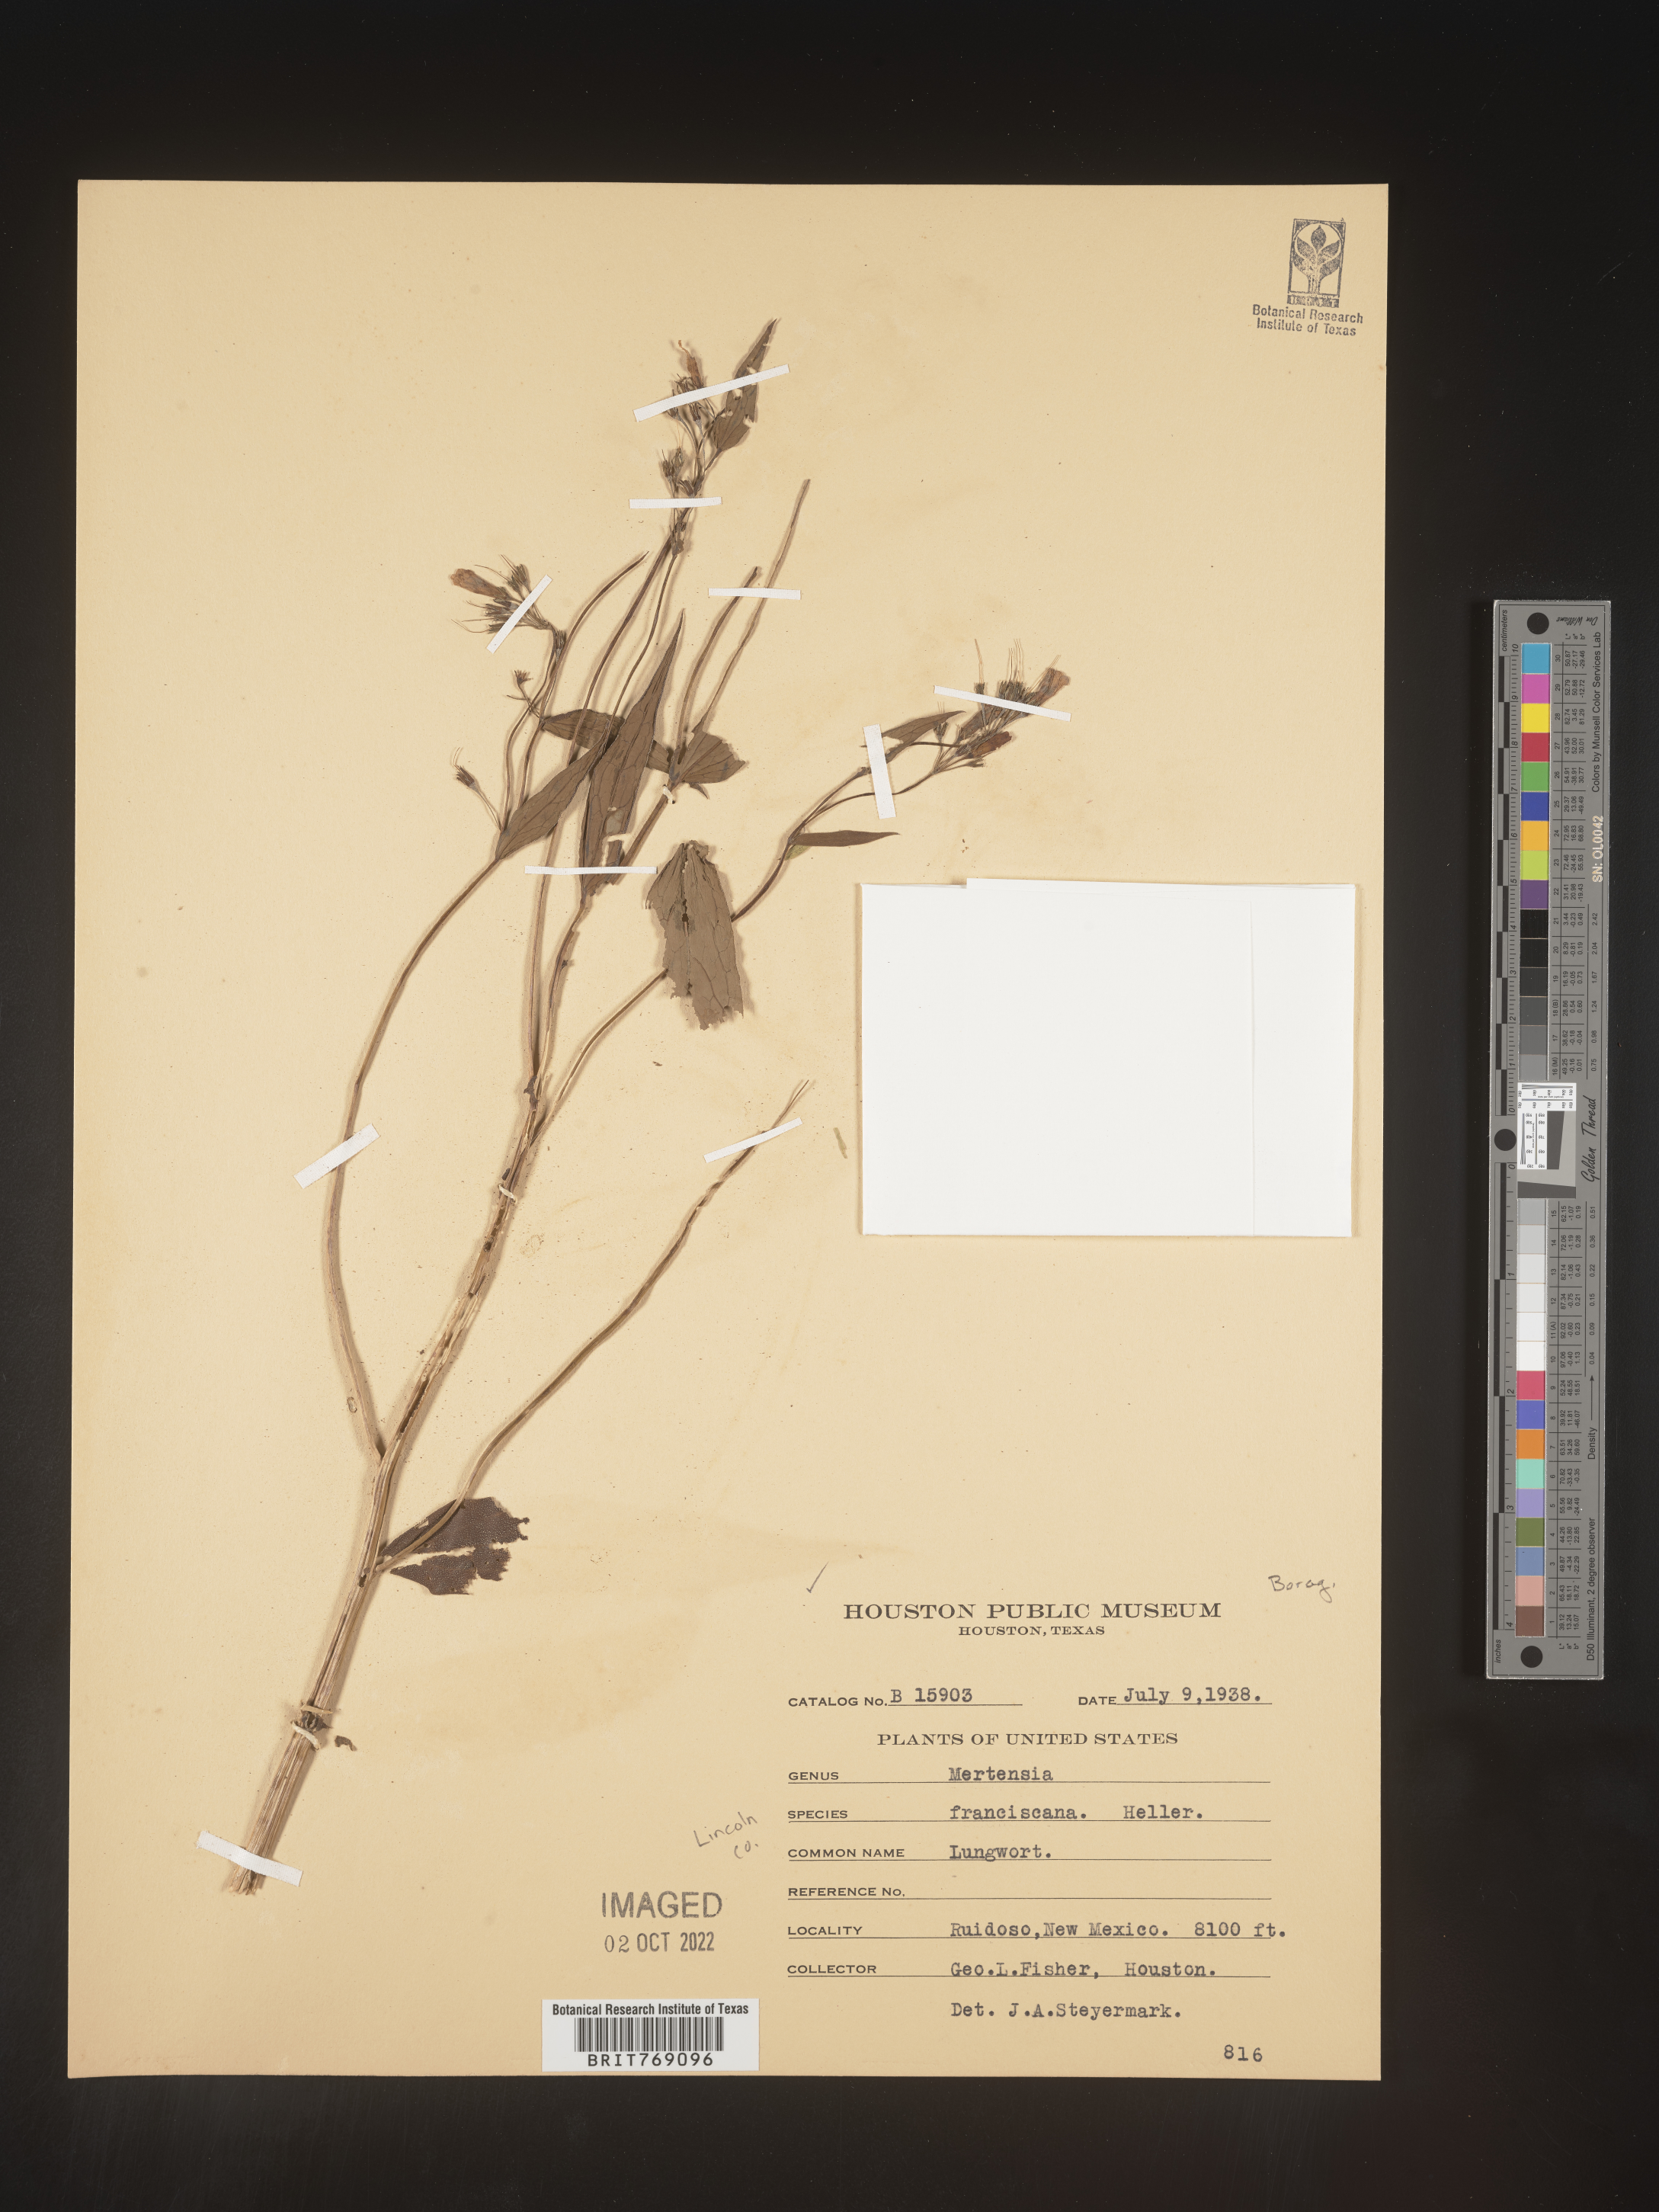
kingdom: Plantae
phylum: Tracheophyta
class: Magnoliopsida
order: Boraginales
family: Boraginaceae
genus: Mertensia
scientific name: Mertensia
